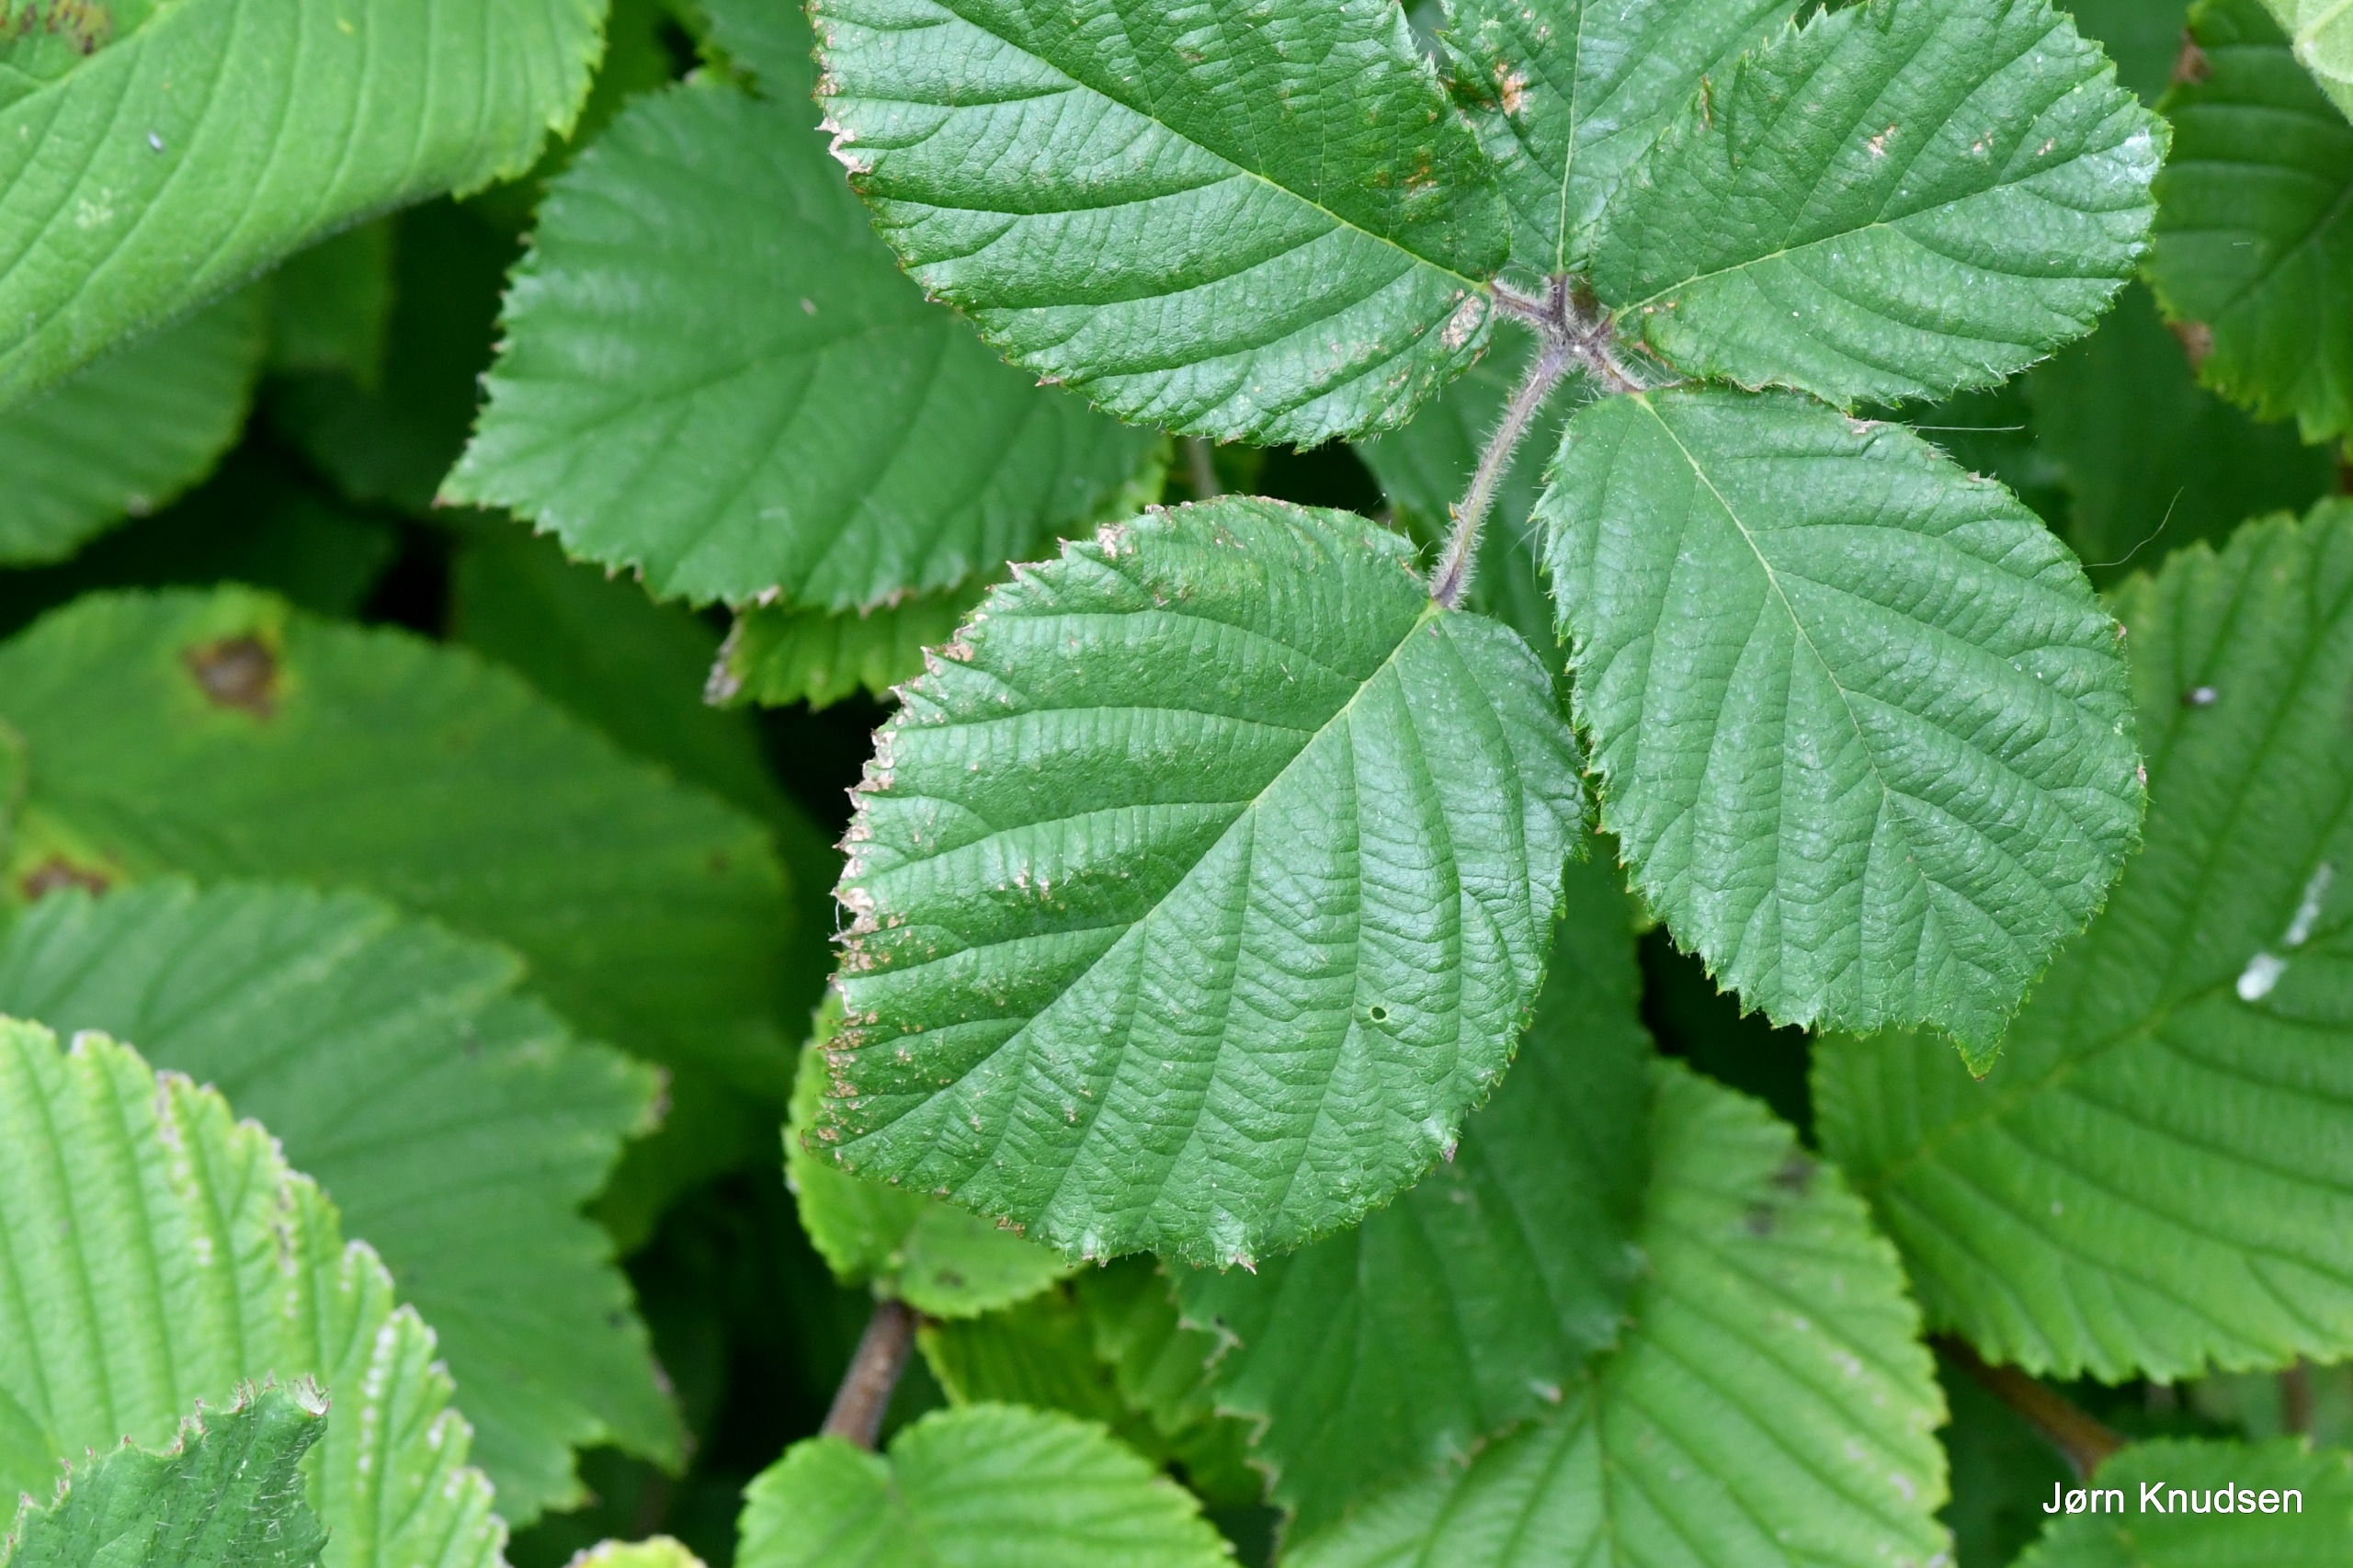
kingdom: Plantae
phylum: Tracheophyta
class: Magnoliopsida
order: Rosales
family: Rosaceae
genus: Rubus
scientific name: Rubus
